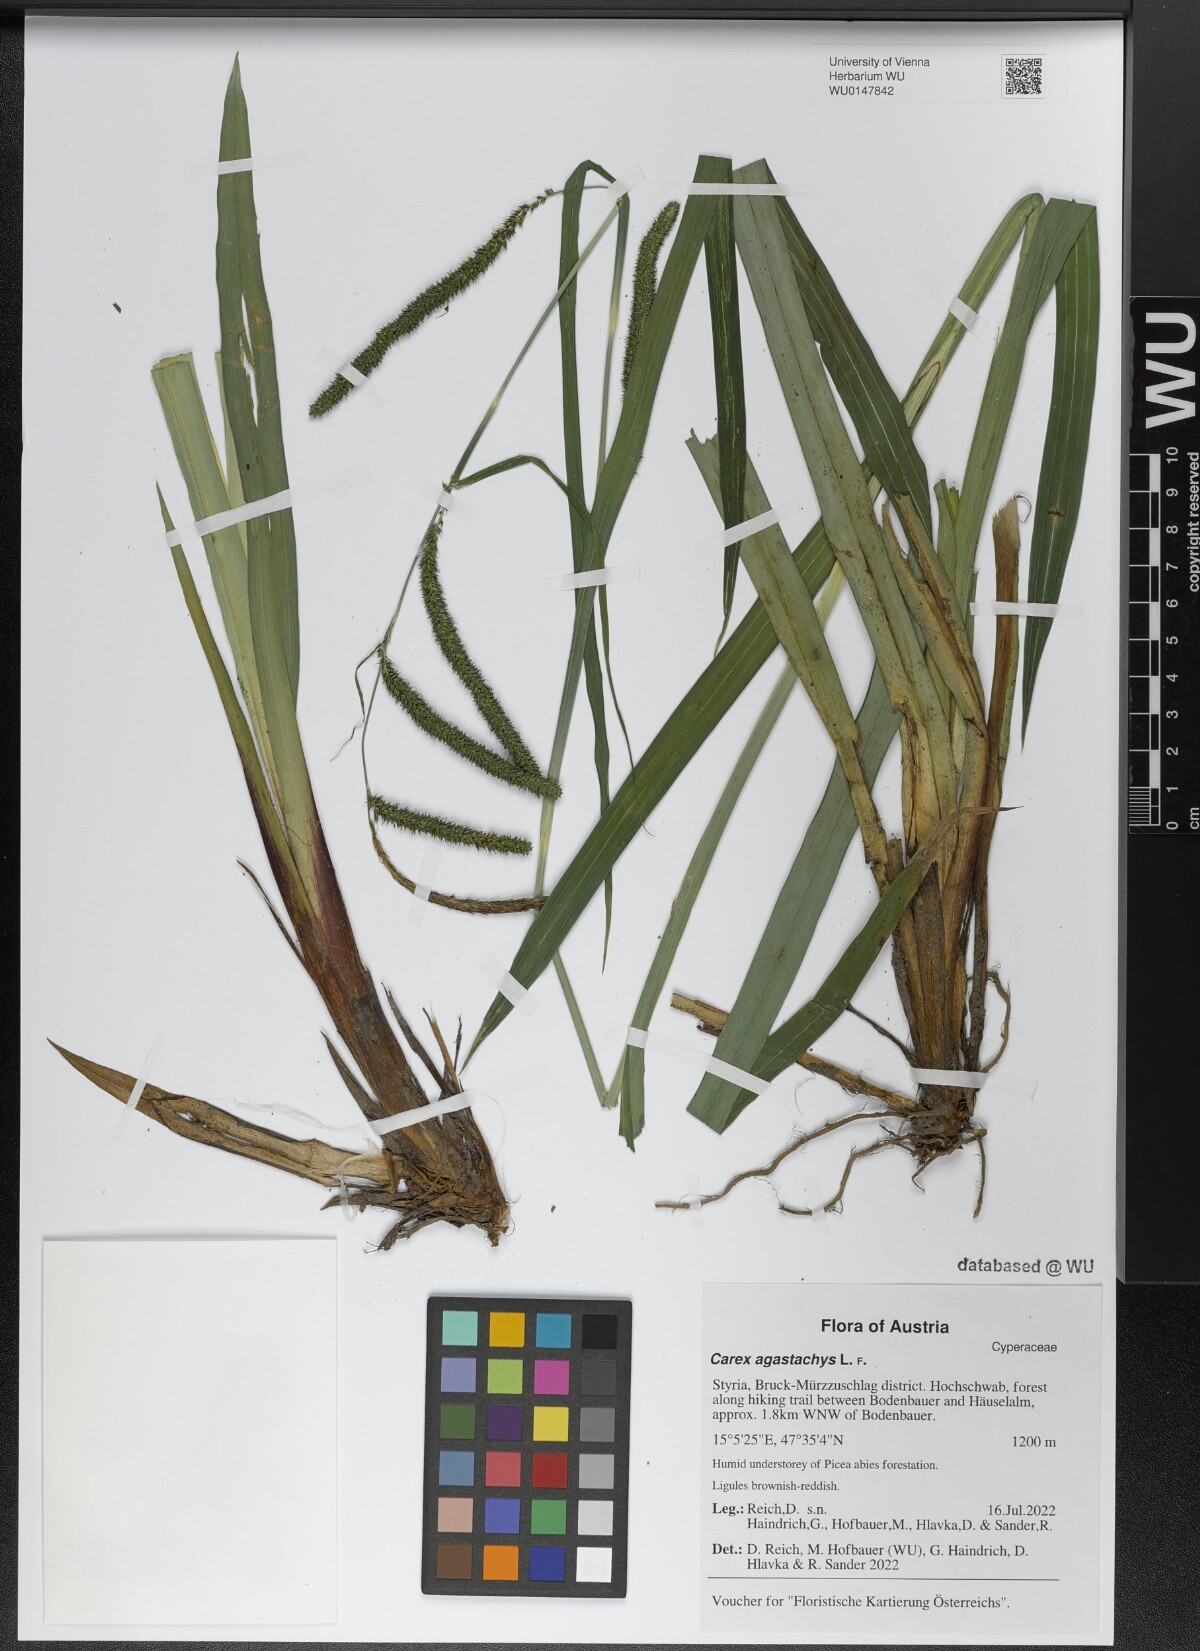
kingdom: Plantae
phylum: Tracheophyta
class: Liliopsida
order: Poales
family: Cyperaceae
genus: Carex
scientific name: Carex agastachys
